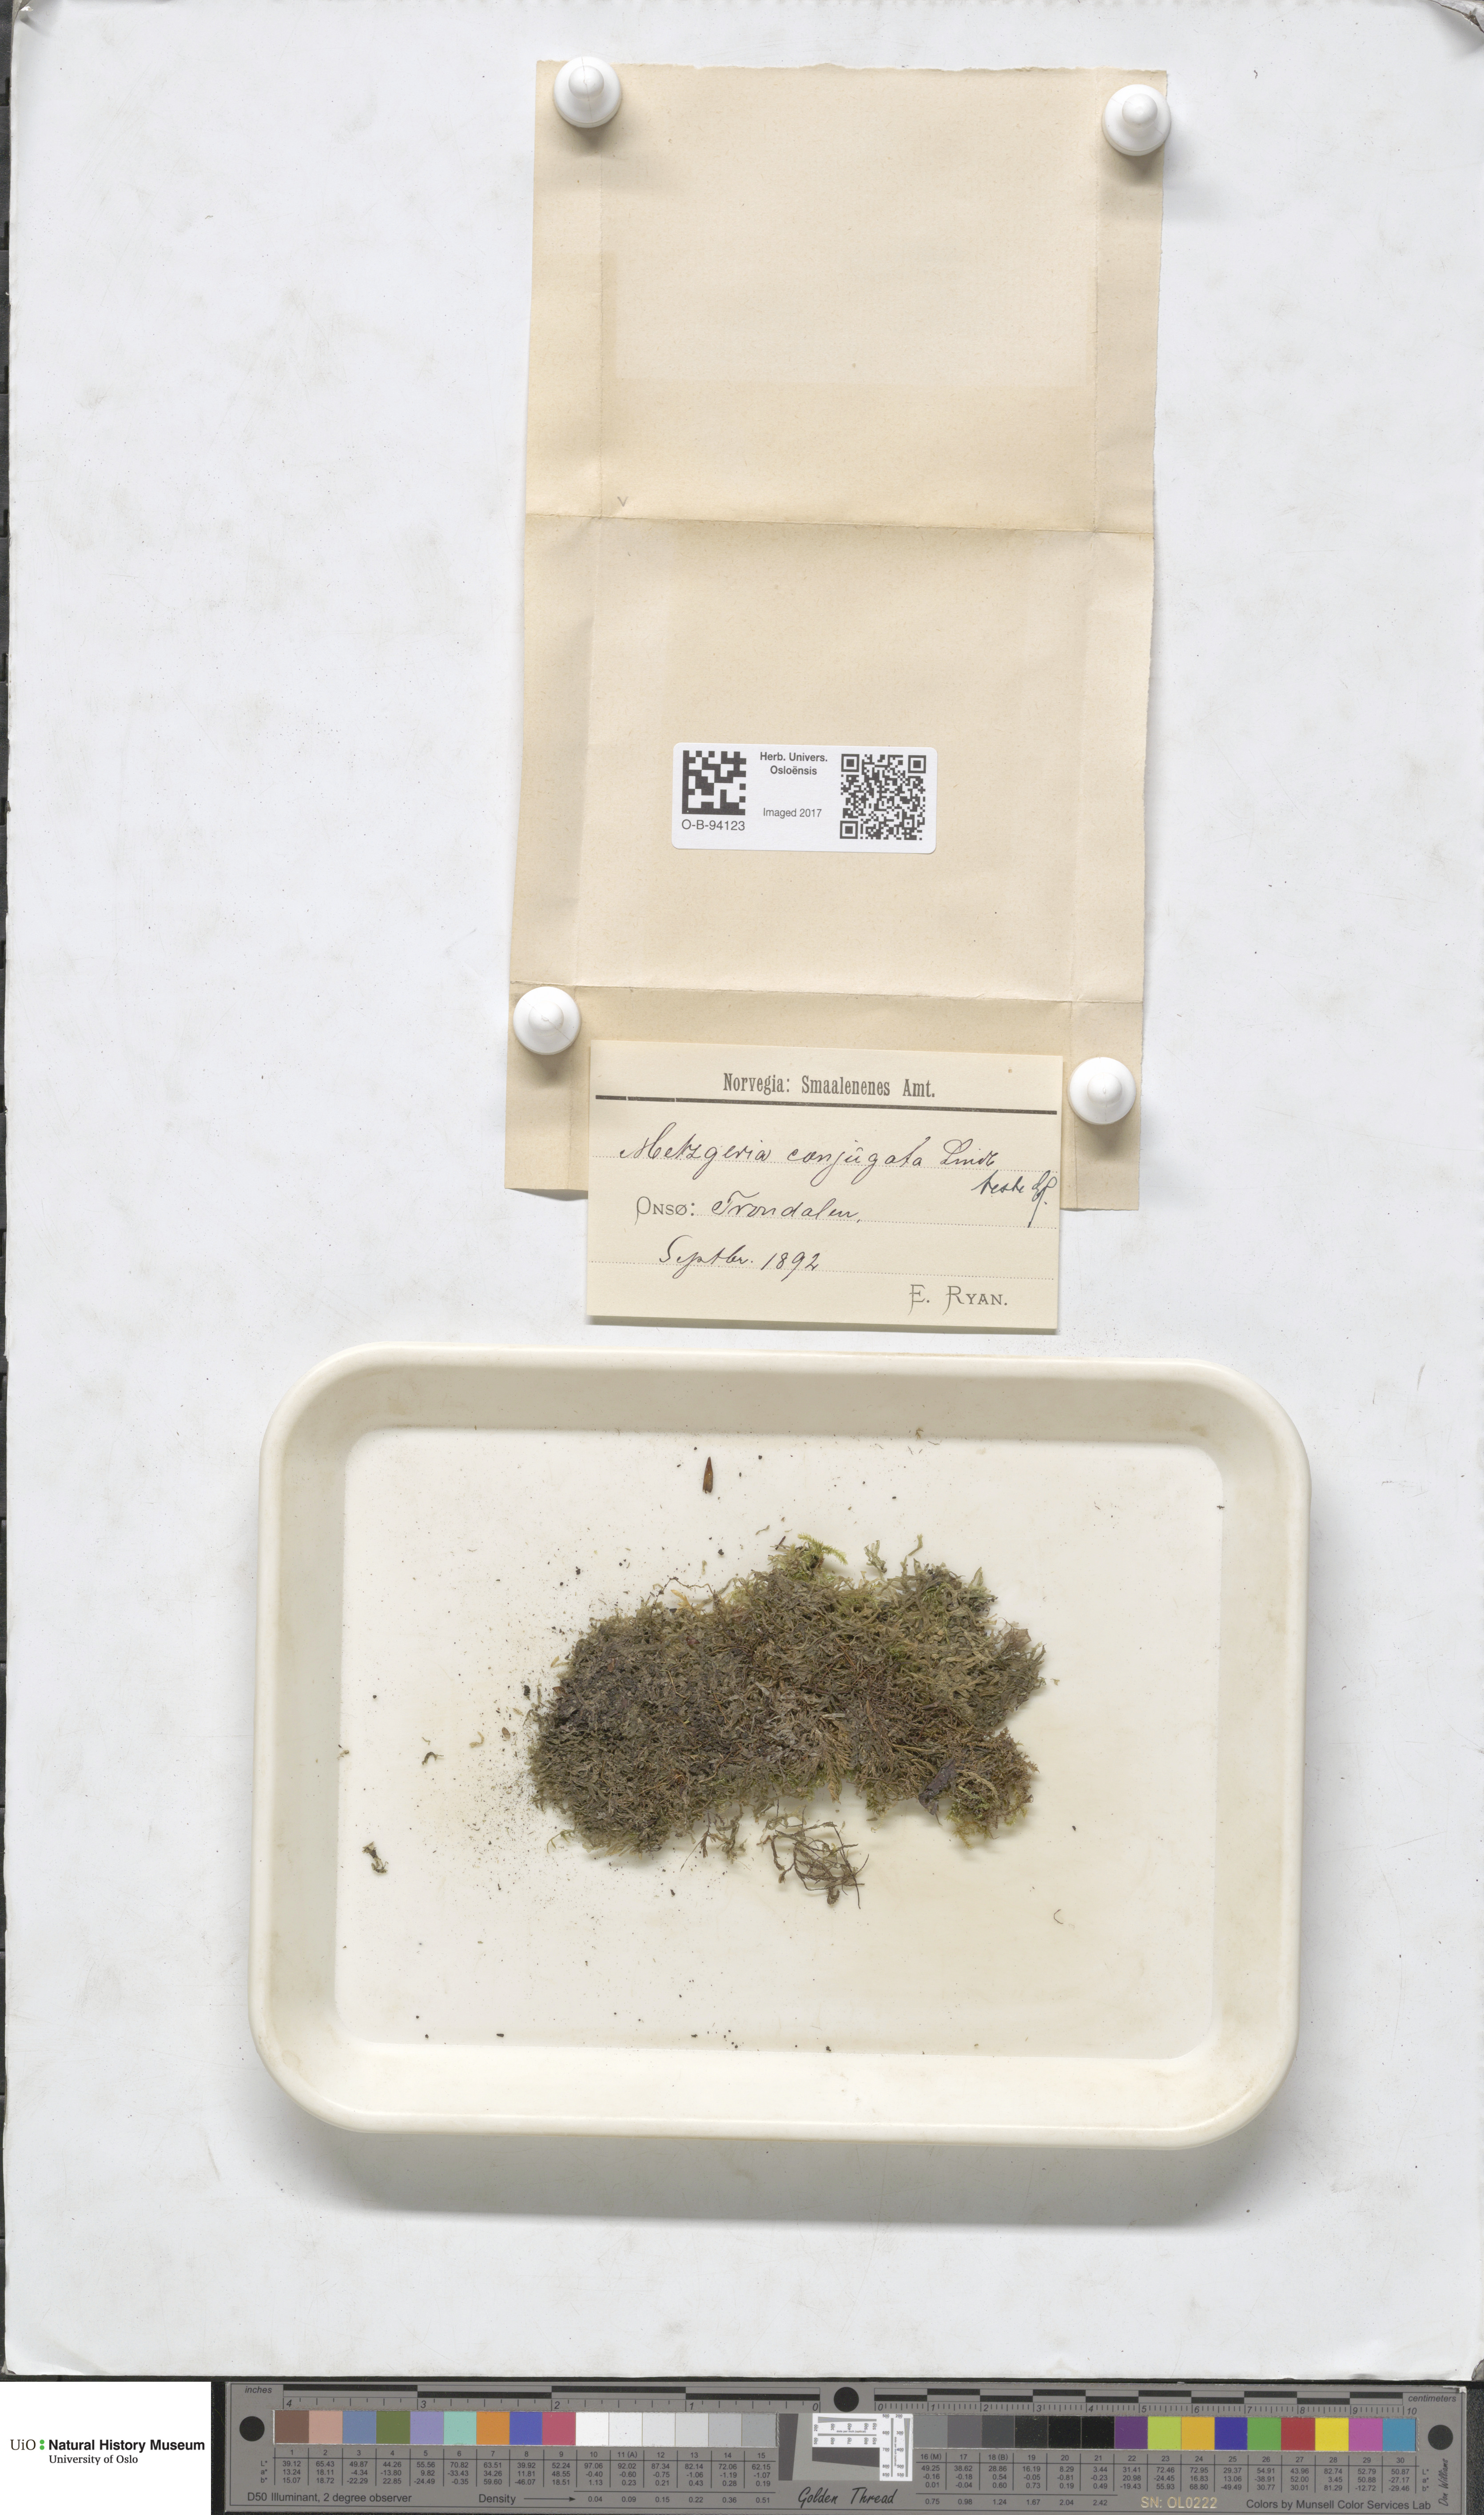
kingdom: Plantae
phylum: Marchantiophyta
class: Jungermanniopsida
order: Metzgeriales
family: Metzgeriaceae
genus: Metzgeria
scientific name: Metzgeria conjugata
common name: Rock veilwort
